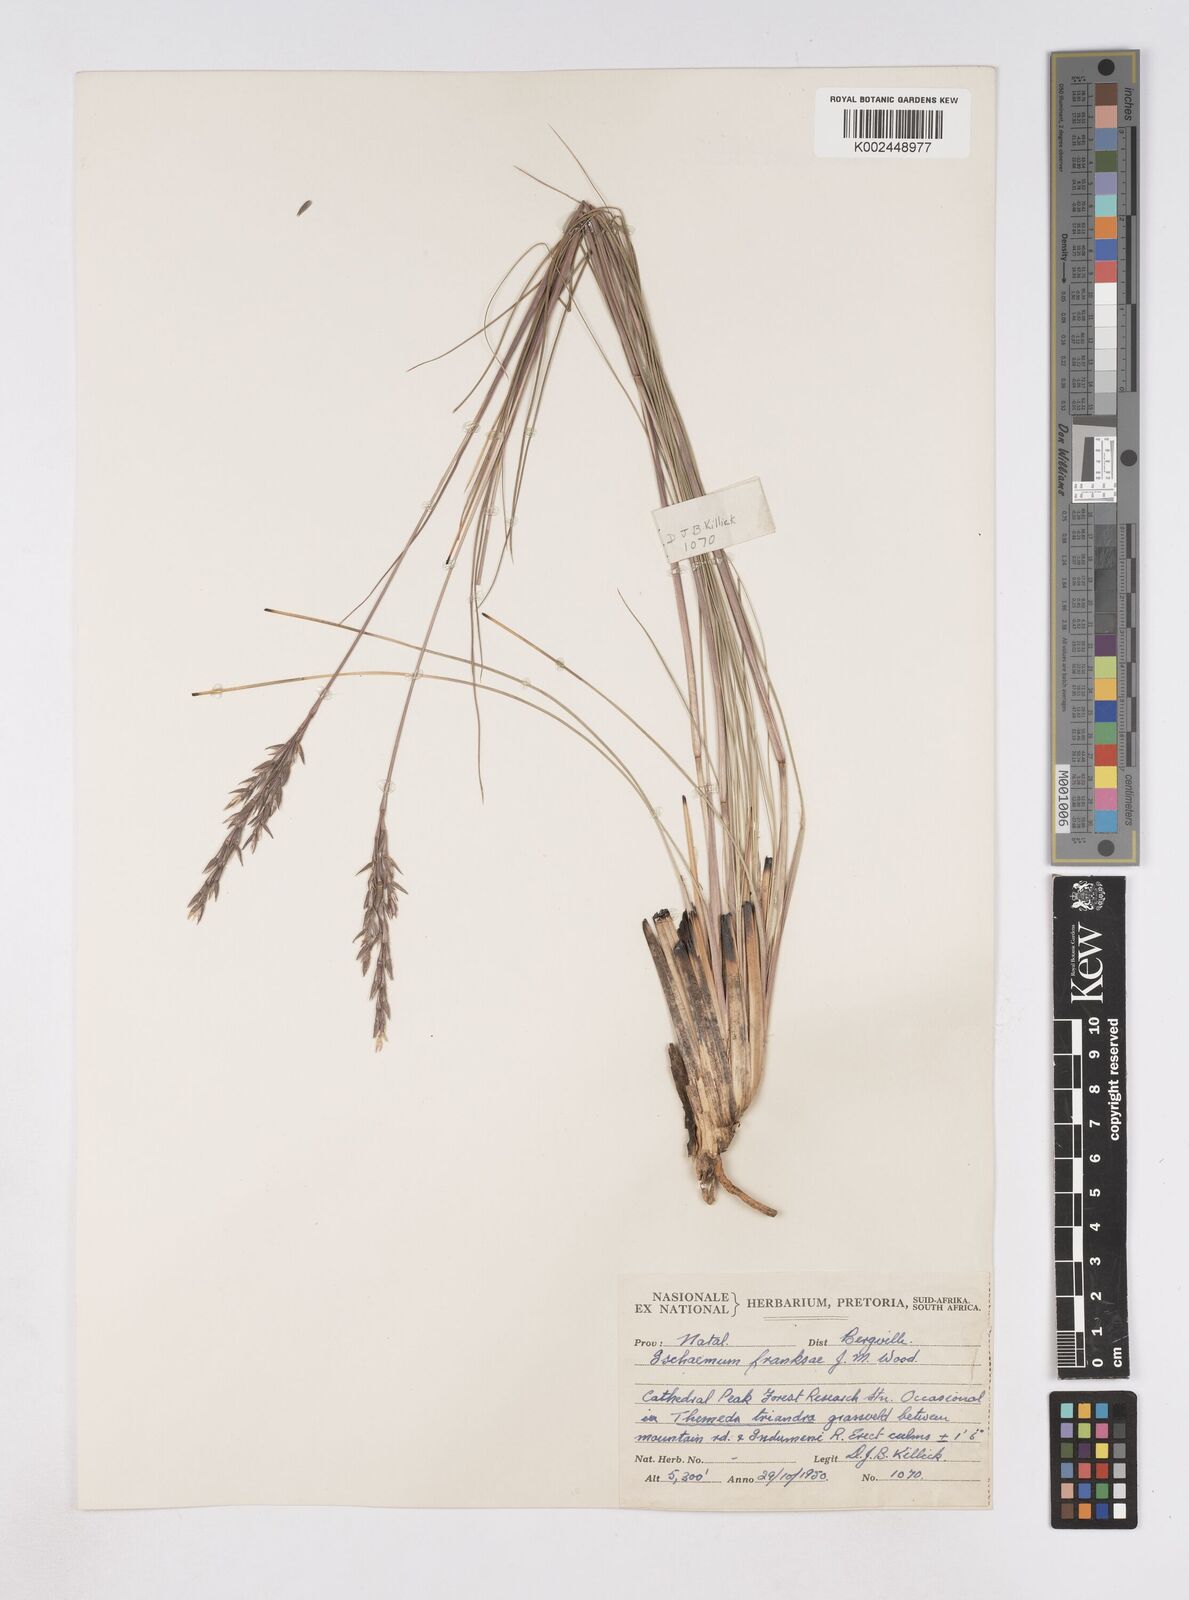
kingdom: Plantae
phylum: Tracheophyta
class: Liliopsida
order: Poales
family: Poaceae
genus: Phacelurus
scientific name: Phacelurus franksiae
